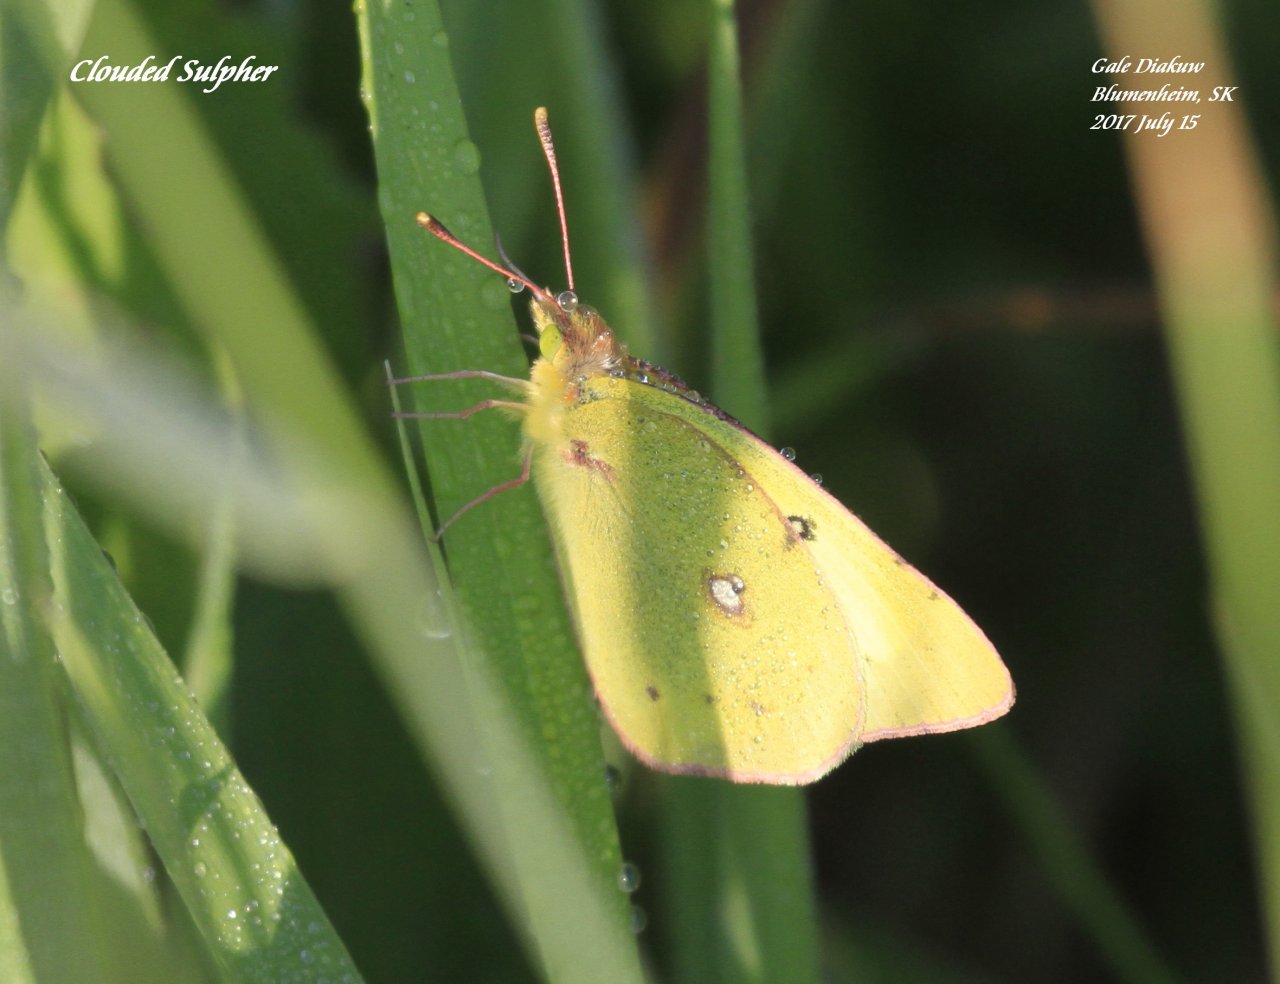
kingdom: Animalia
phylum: Arthropoda
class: Insecta
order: Lepidoptera
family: Pieridae
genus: Colias
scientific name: Colias philodice
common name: Clouded Sulphur
